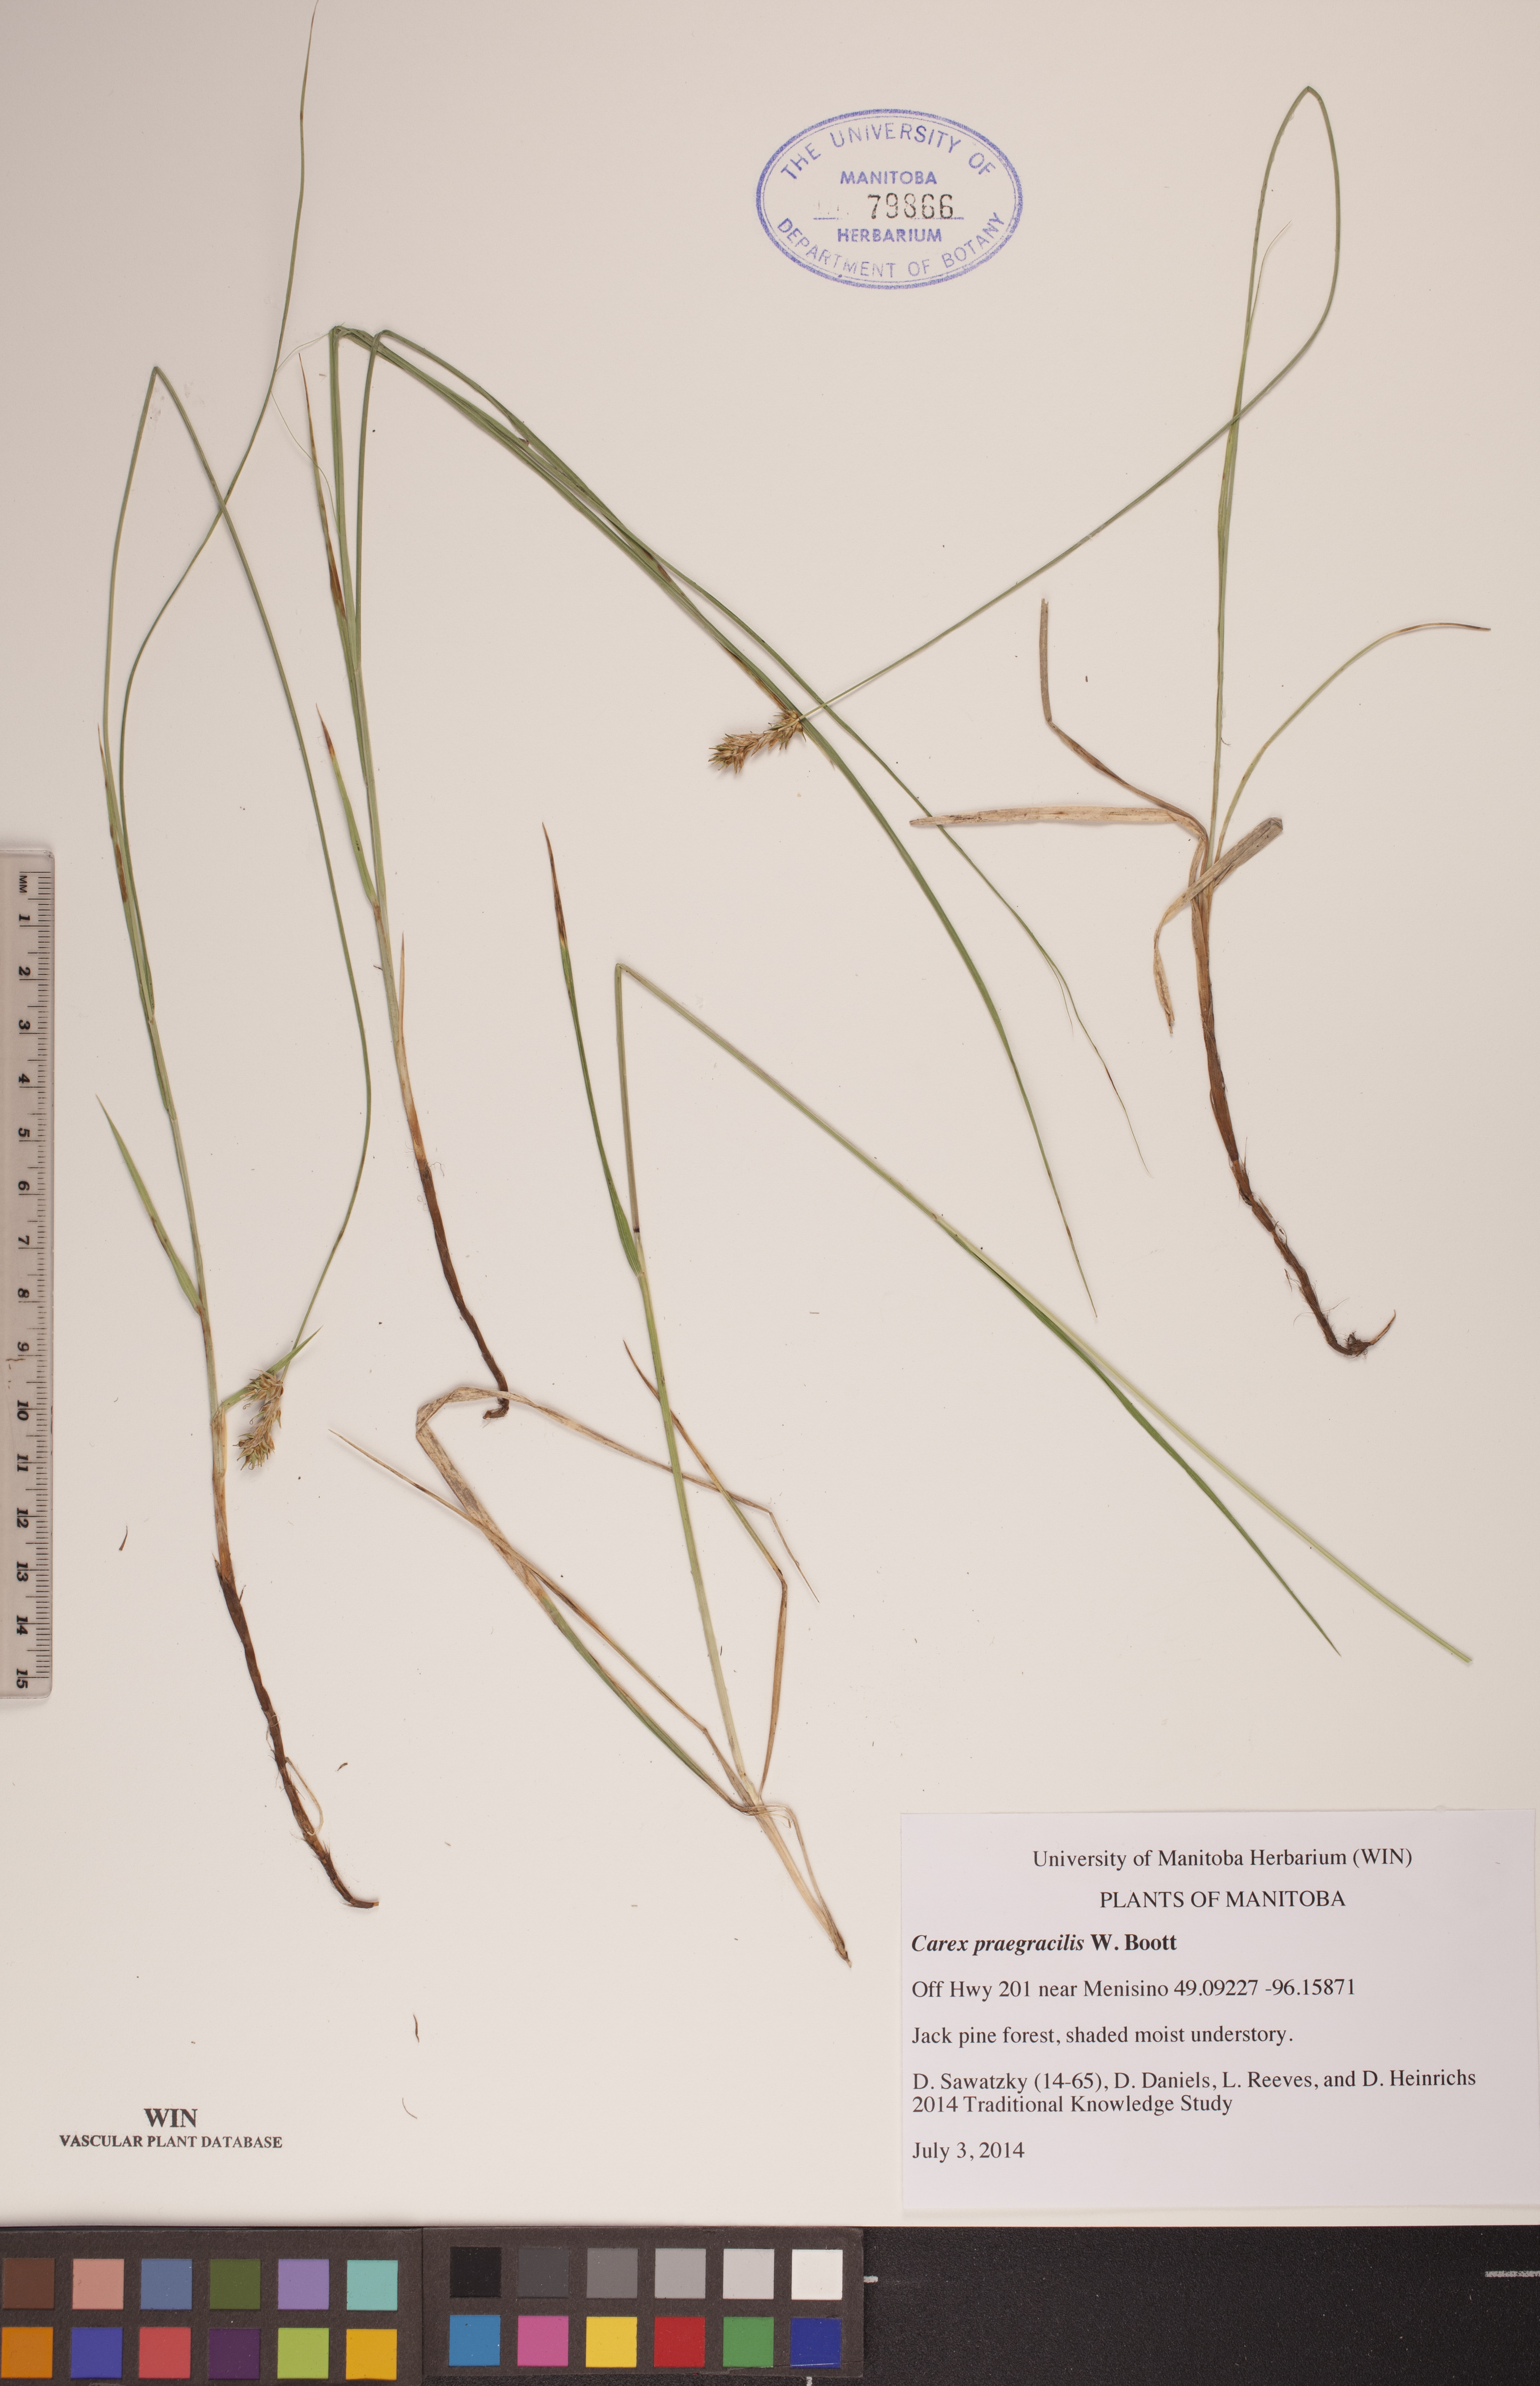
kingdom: Plantae
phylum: Tracheophyta
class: Liliopsida
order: Poales
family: Cyperaceae
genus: Carex
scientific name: Carex praegracilis
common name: Black creeper sedge
